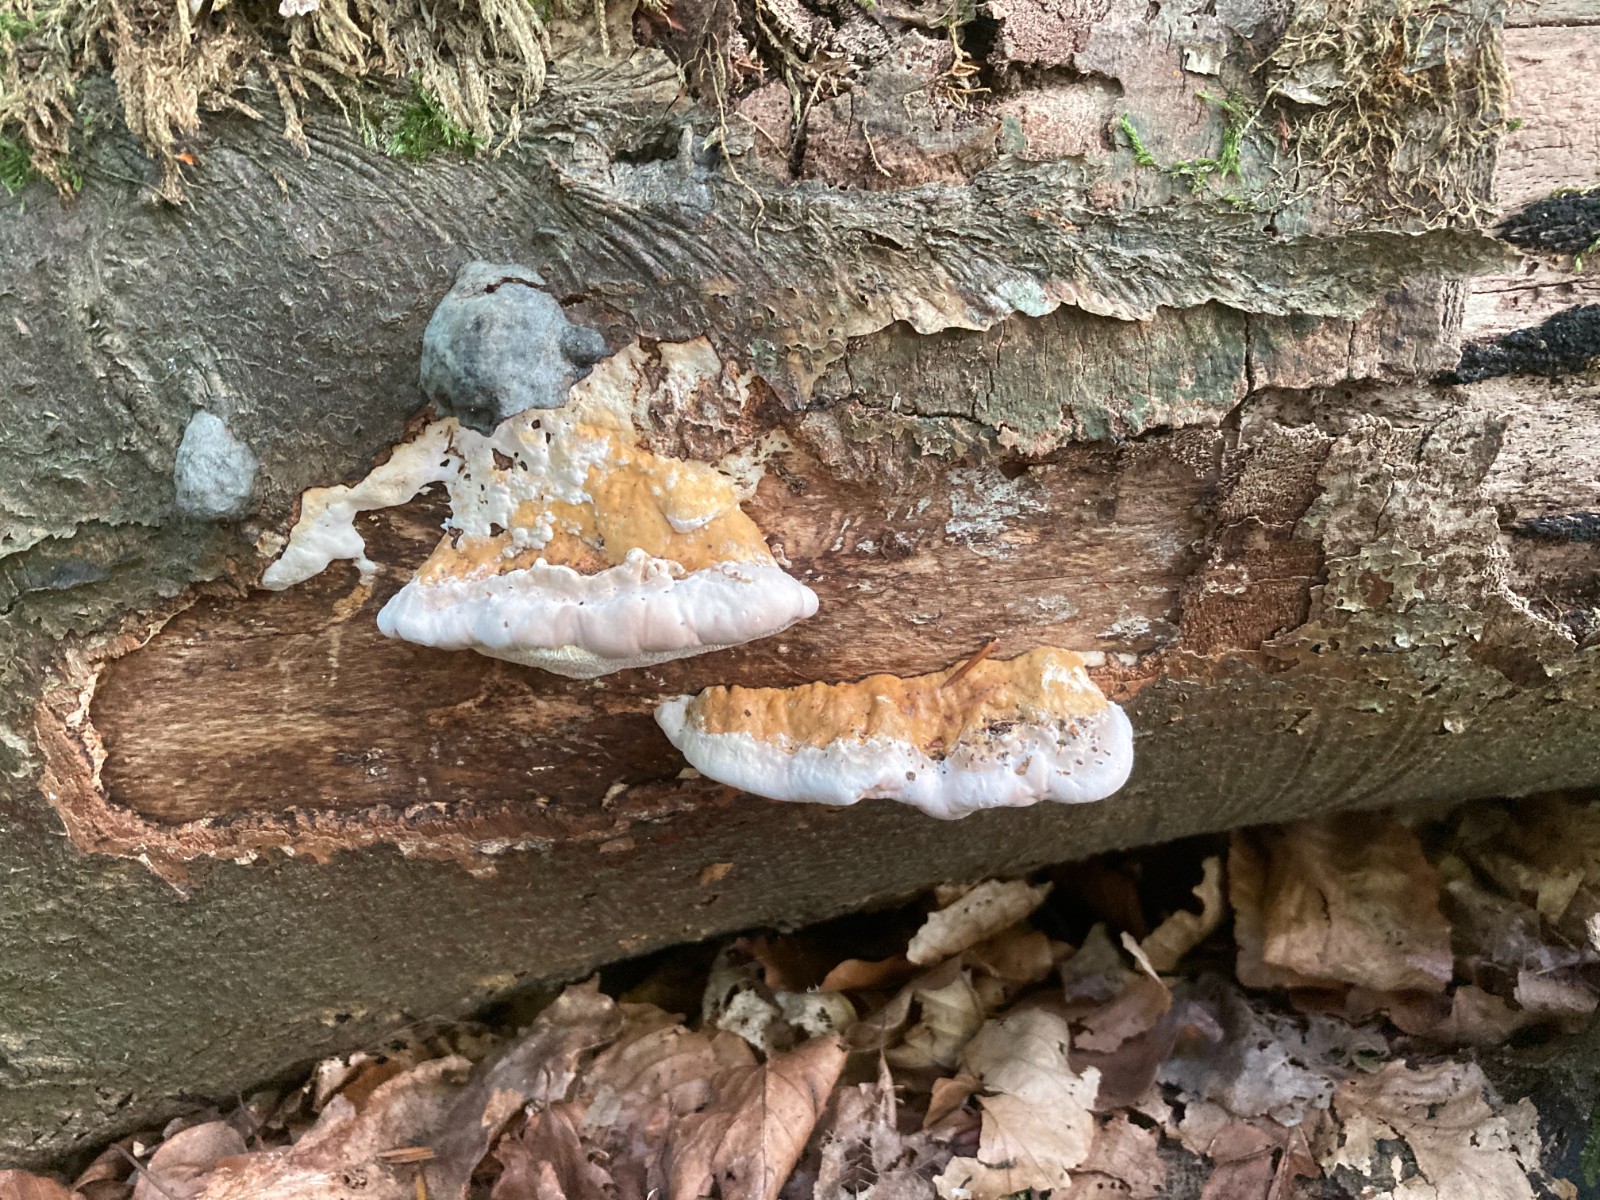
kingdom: Fungi
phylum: Basidiomycota
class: Agaricomycetes
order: Polyporales
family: Fomitopsidaceae
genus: Fomitopsis
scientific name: Fomitopsis pinicola
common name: randbæltet hovporesvamp
